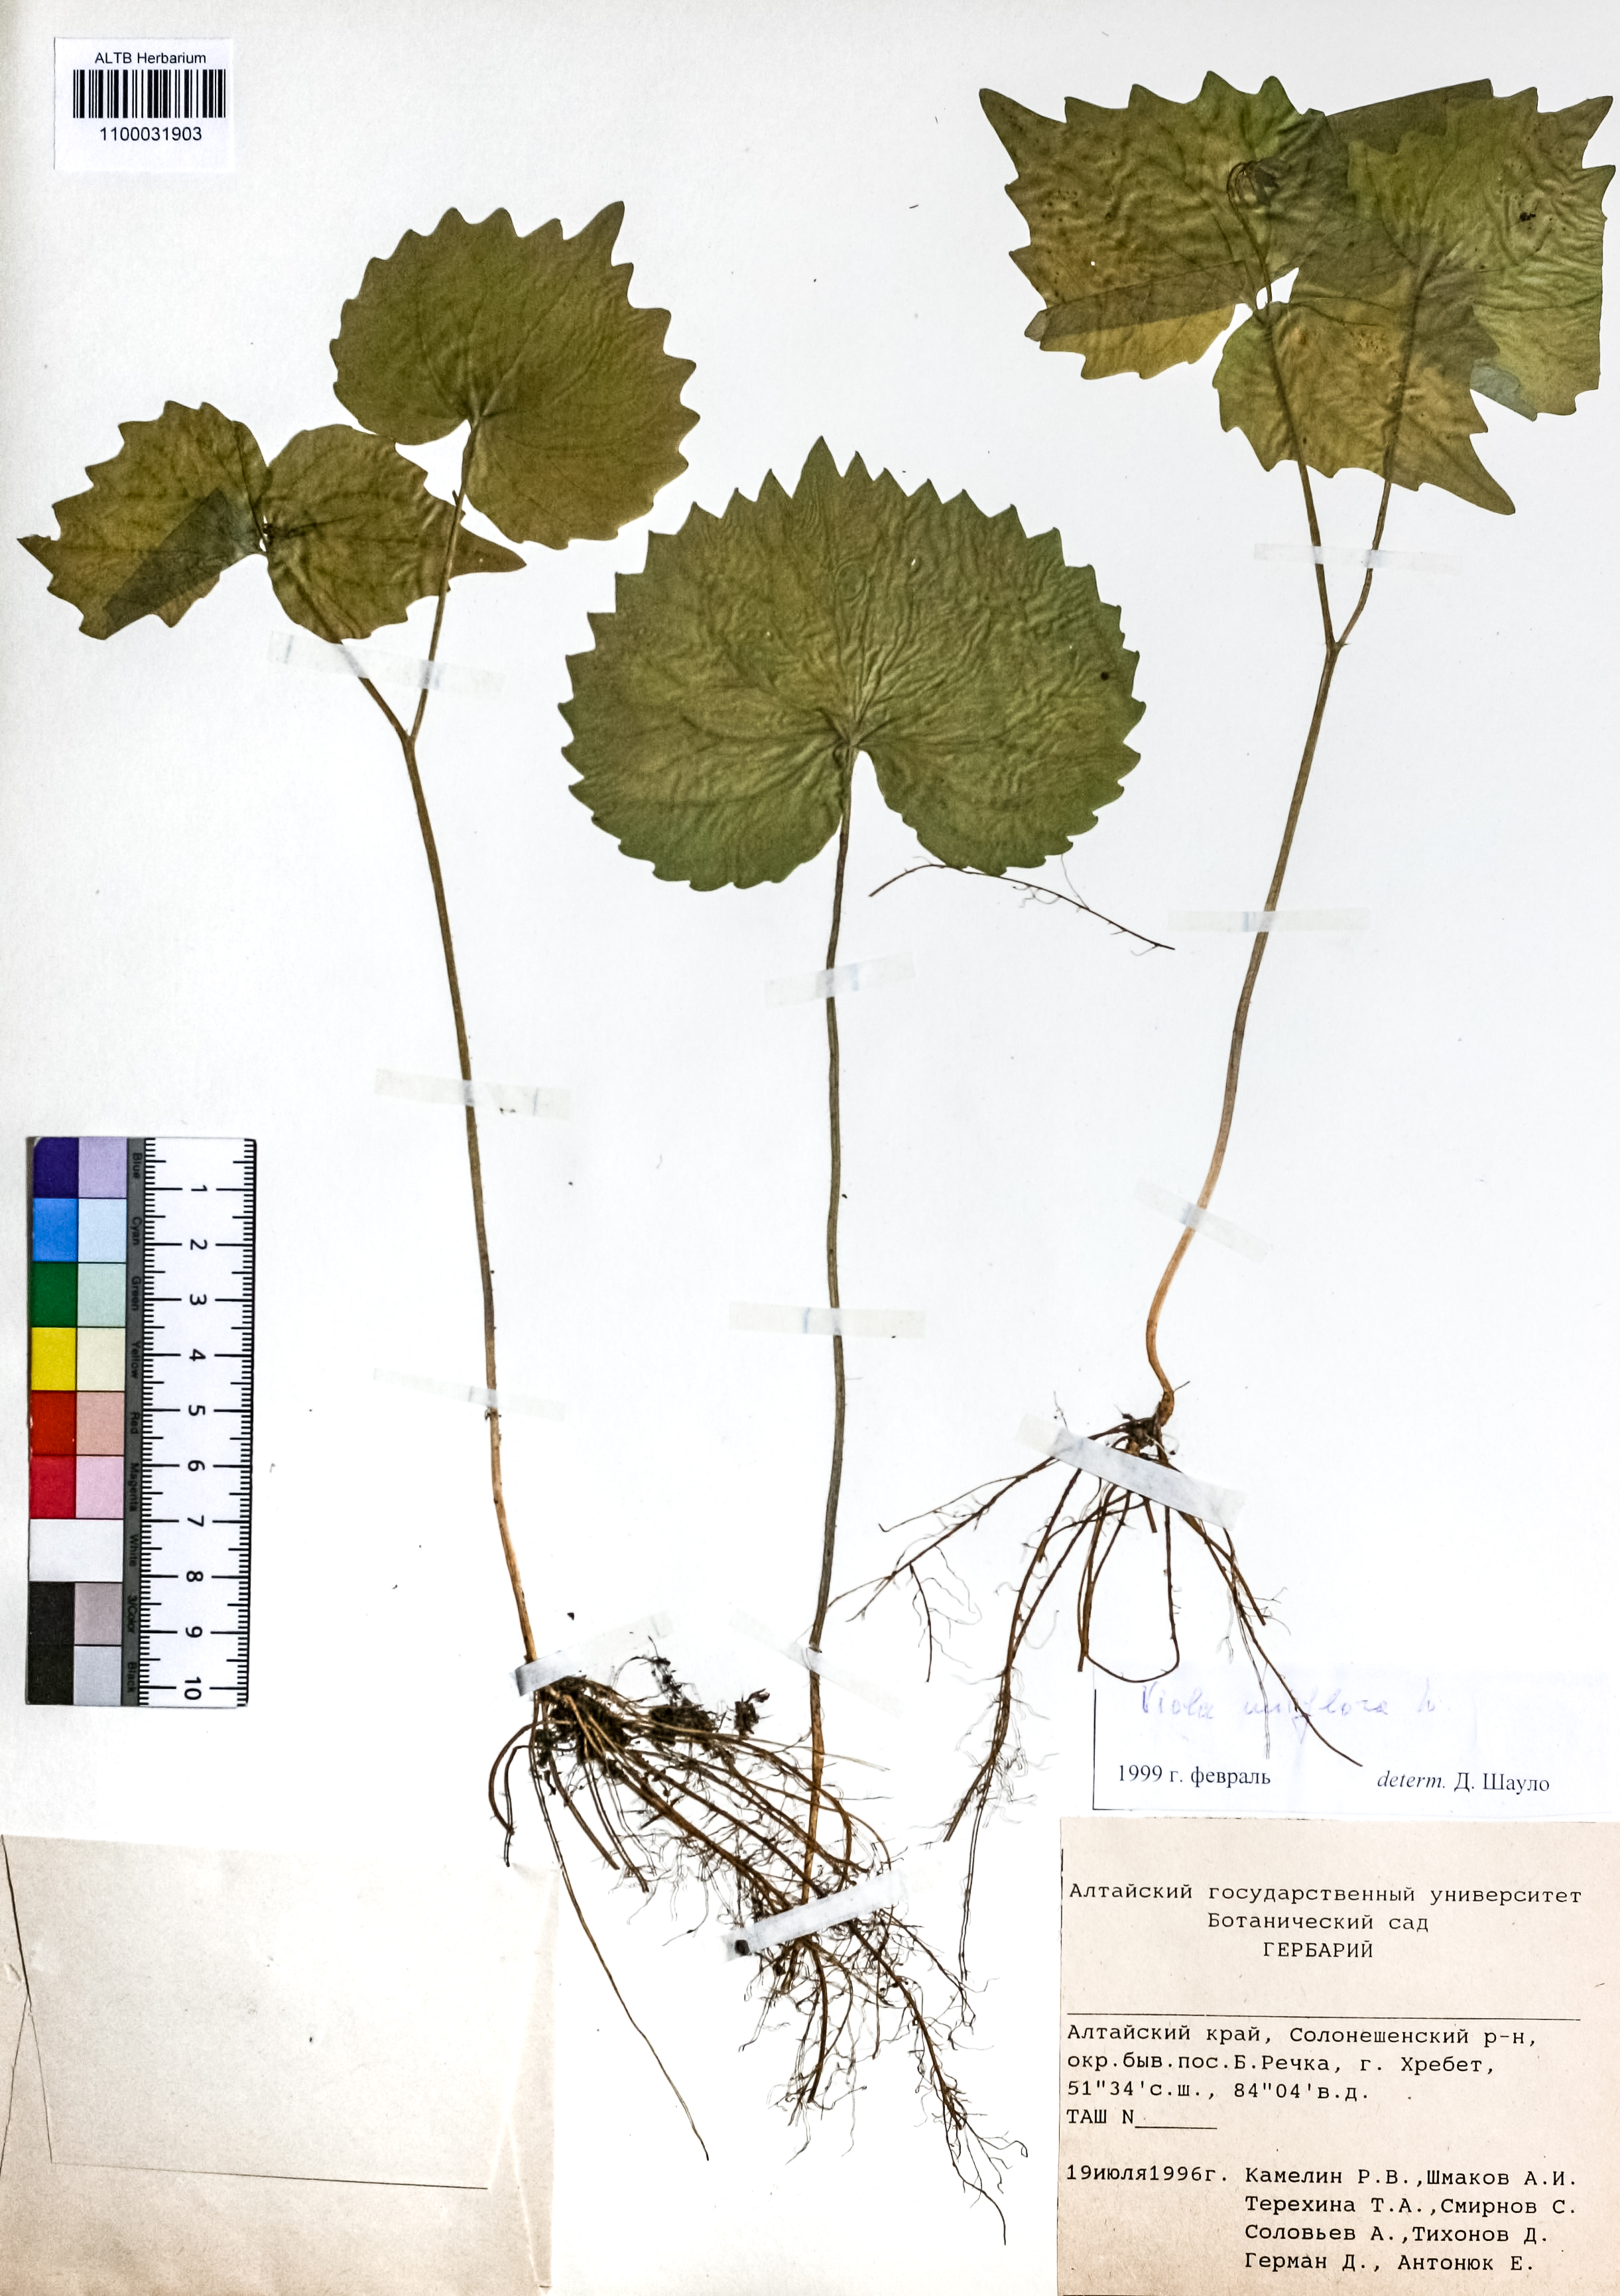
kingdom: Plantae
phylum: Tracheophyta
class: Magnoliopsida
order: Malpighiales
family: Violaceae
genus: Viola
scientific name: Viola uniflora
